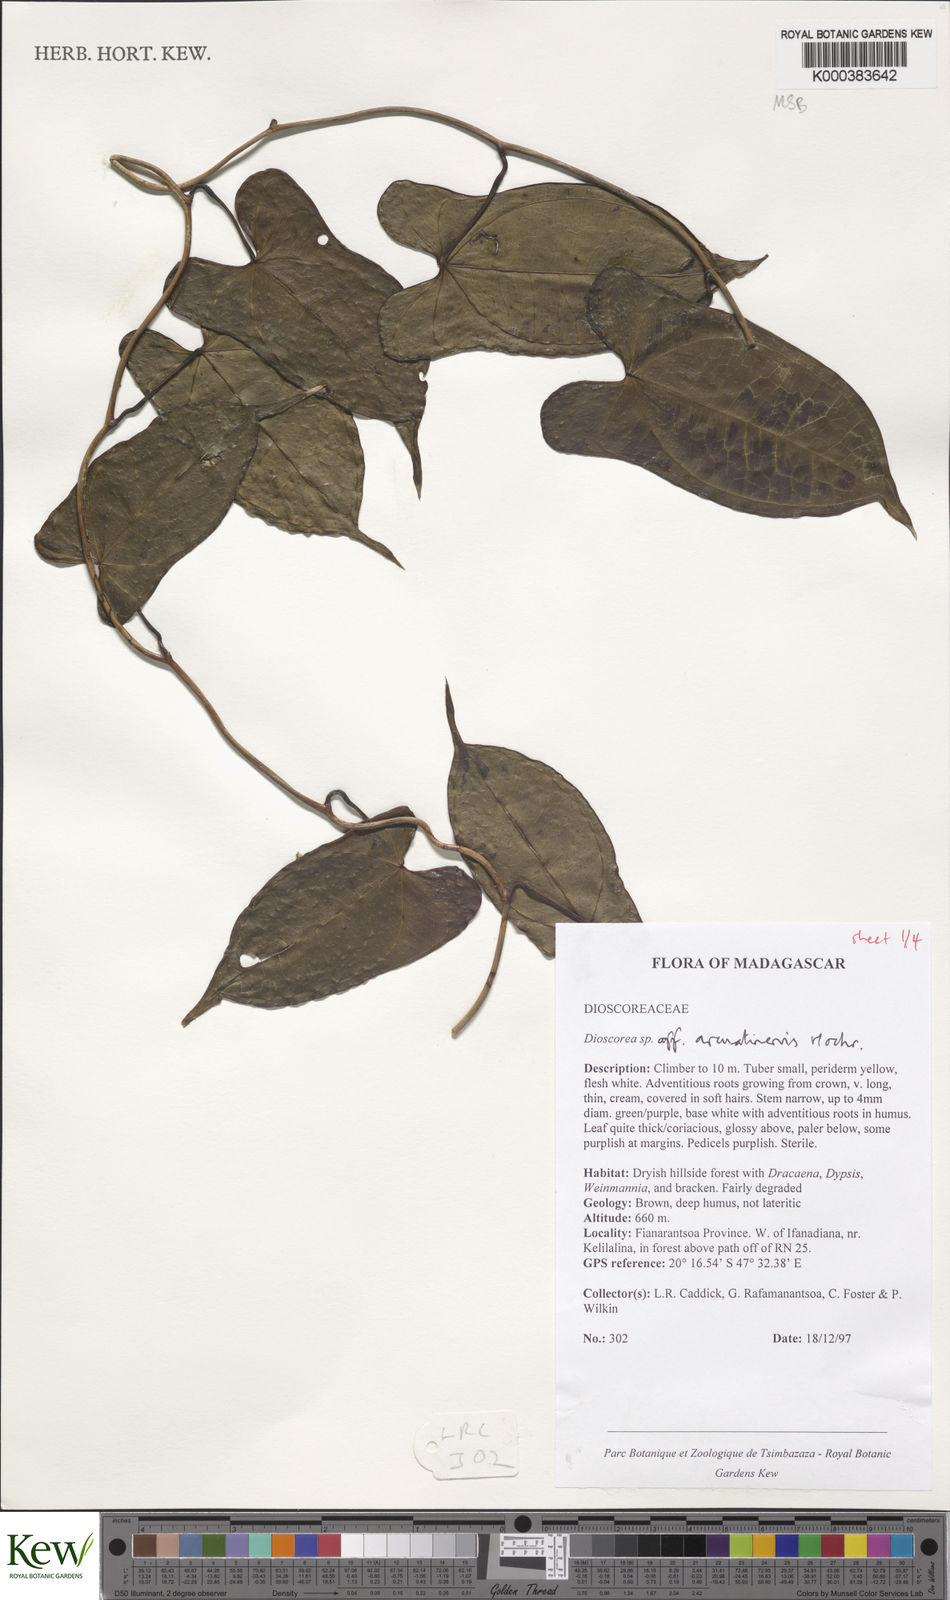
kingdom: Plantae
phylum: Tracheophyta
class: Liliopsida
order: Dioscoreales
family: Dioscoreaceae
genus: Dioscorea
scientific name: Dioscorea arcuatinervis
